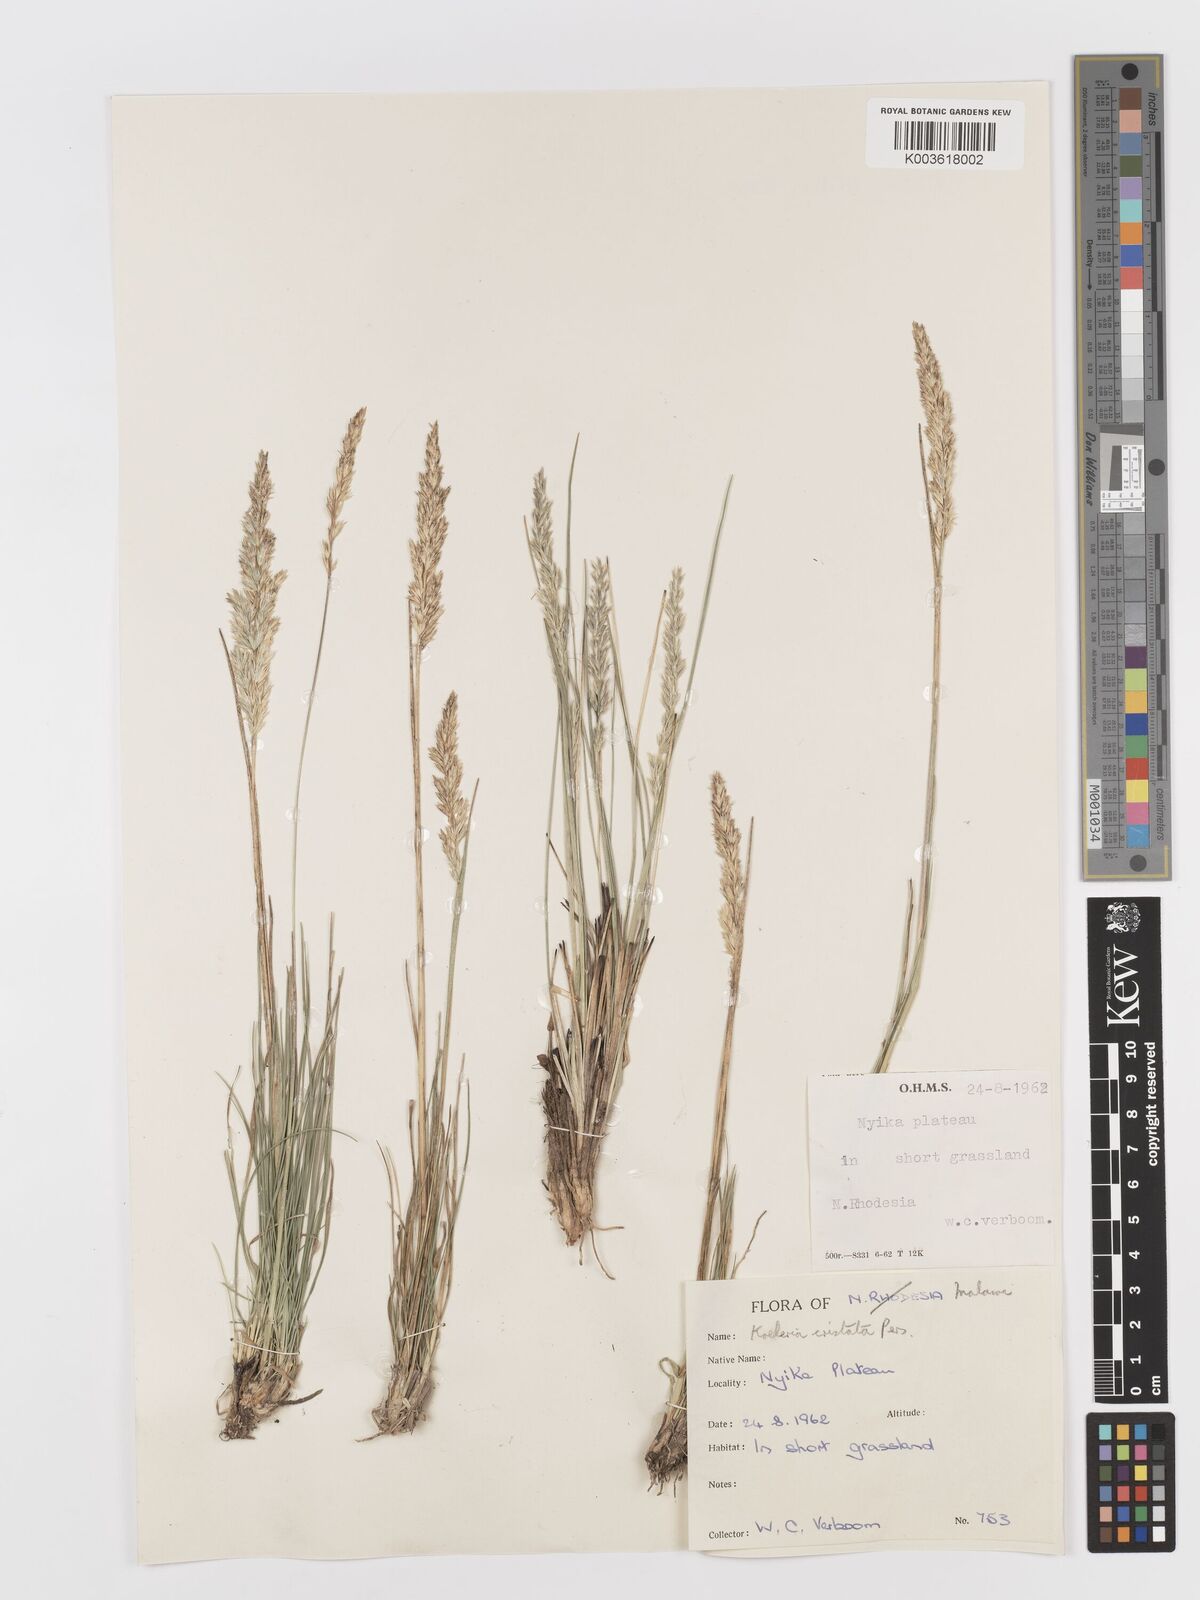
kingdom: Plantae
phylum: Tracheophyta
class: Liliopsida
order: Poales
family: Poaceae
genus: Koeleria
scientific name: Koeleria capensis
